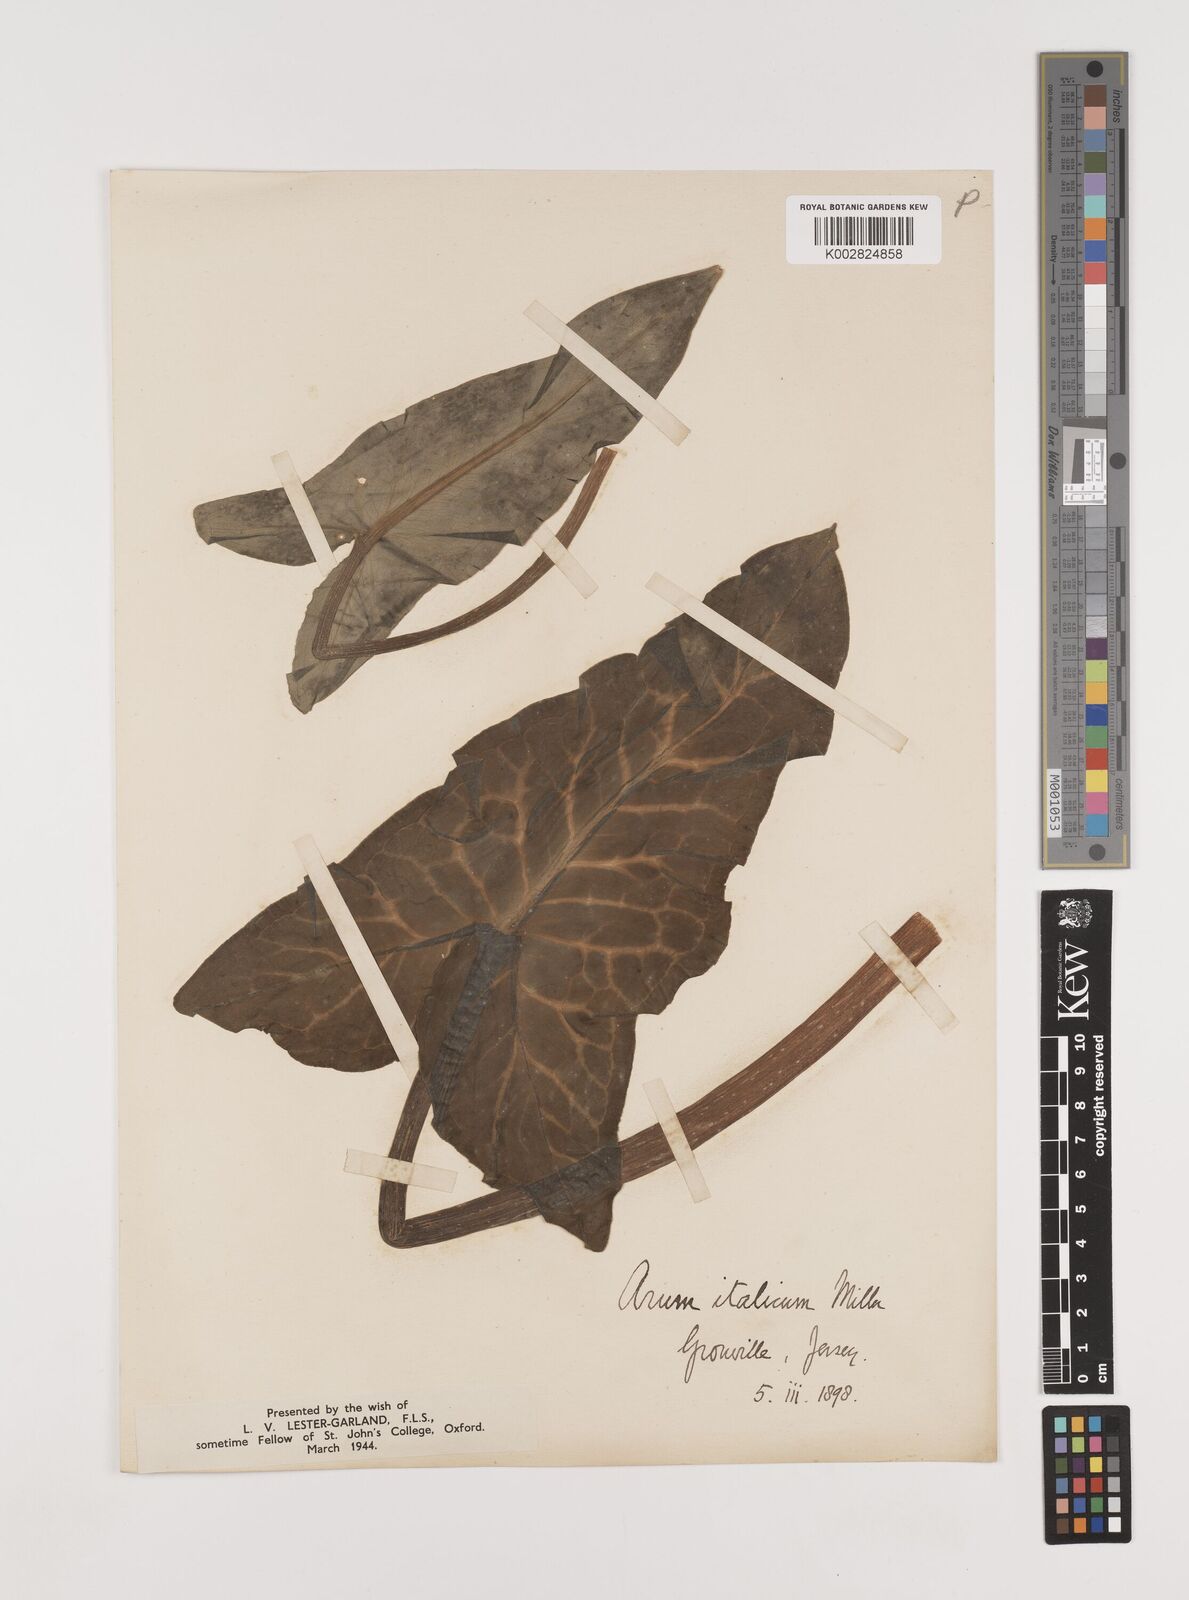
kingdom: Plantae
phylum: Tracheophyta
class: Liliopsida
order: Alismatales
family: Araceae
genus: Arum
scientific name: Arum italicum
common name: Italian lords-and-ladies
